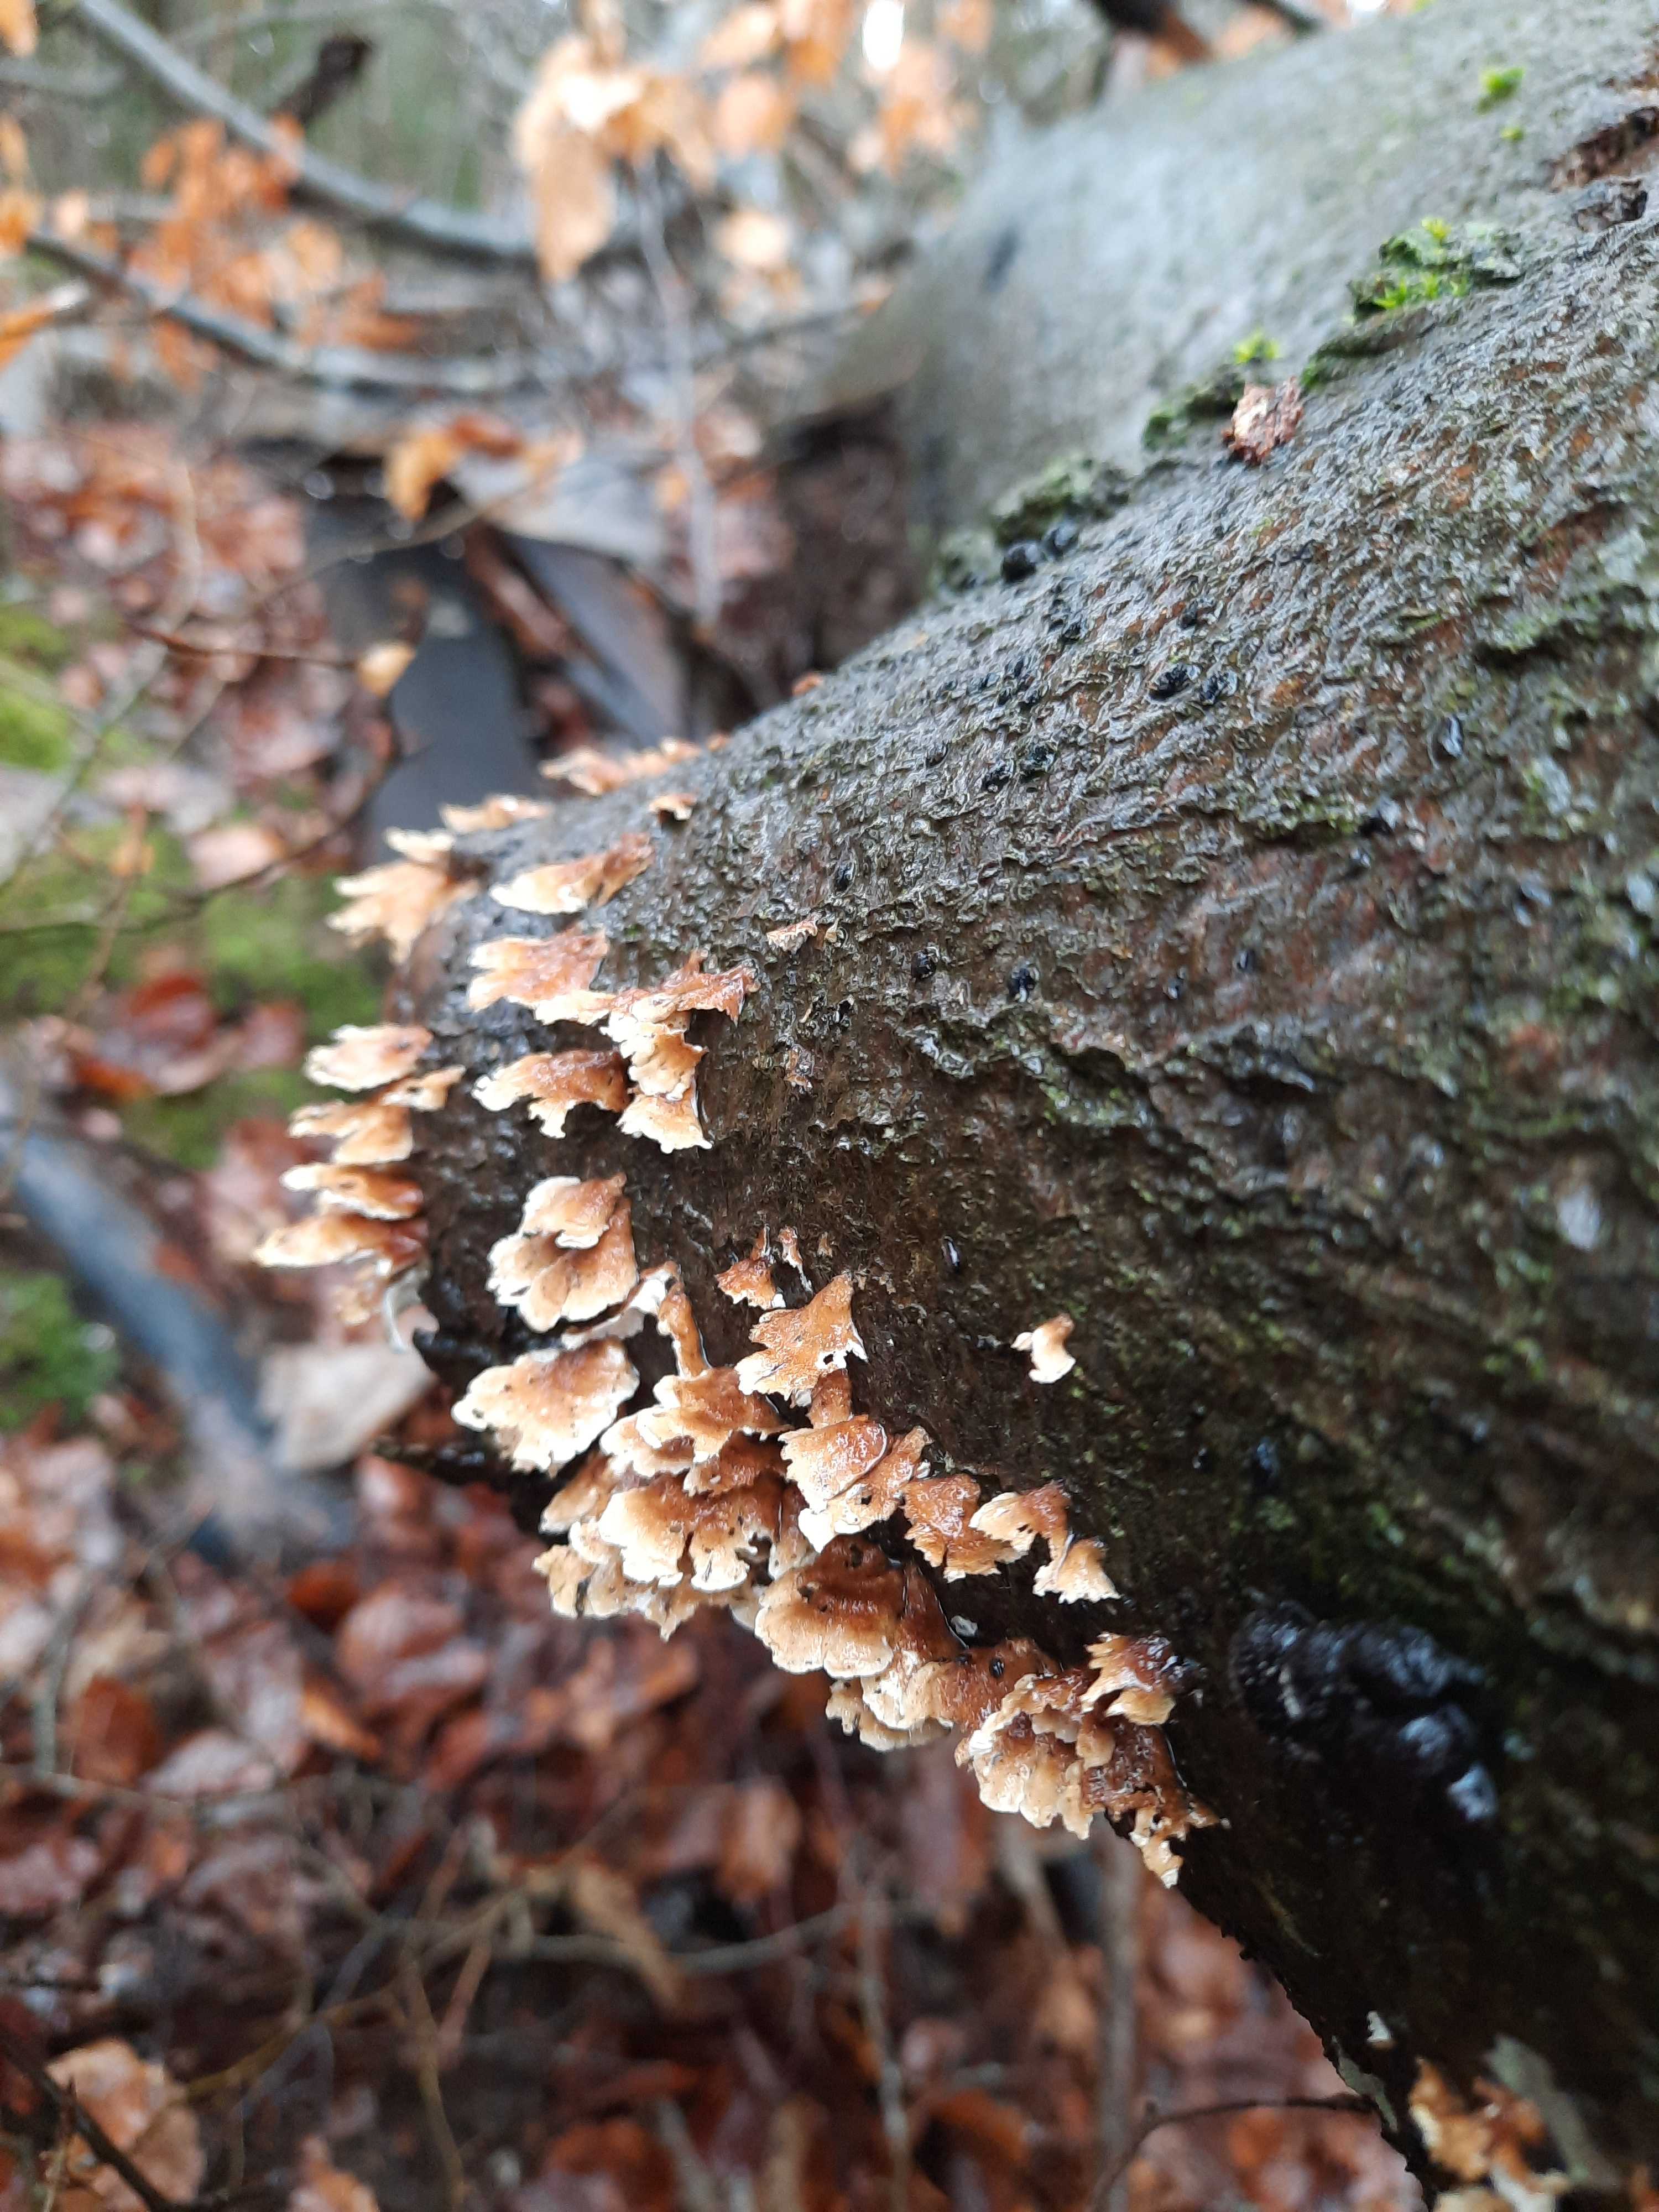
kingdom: Fungi
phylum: Basidiomycota
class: Agaricomycetes
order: Amylocorticiales
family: Amylocorticiaceae
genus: Plicaturopsis
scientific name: Plicaturopsis crispa
